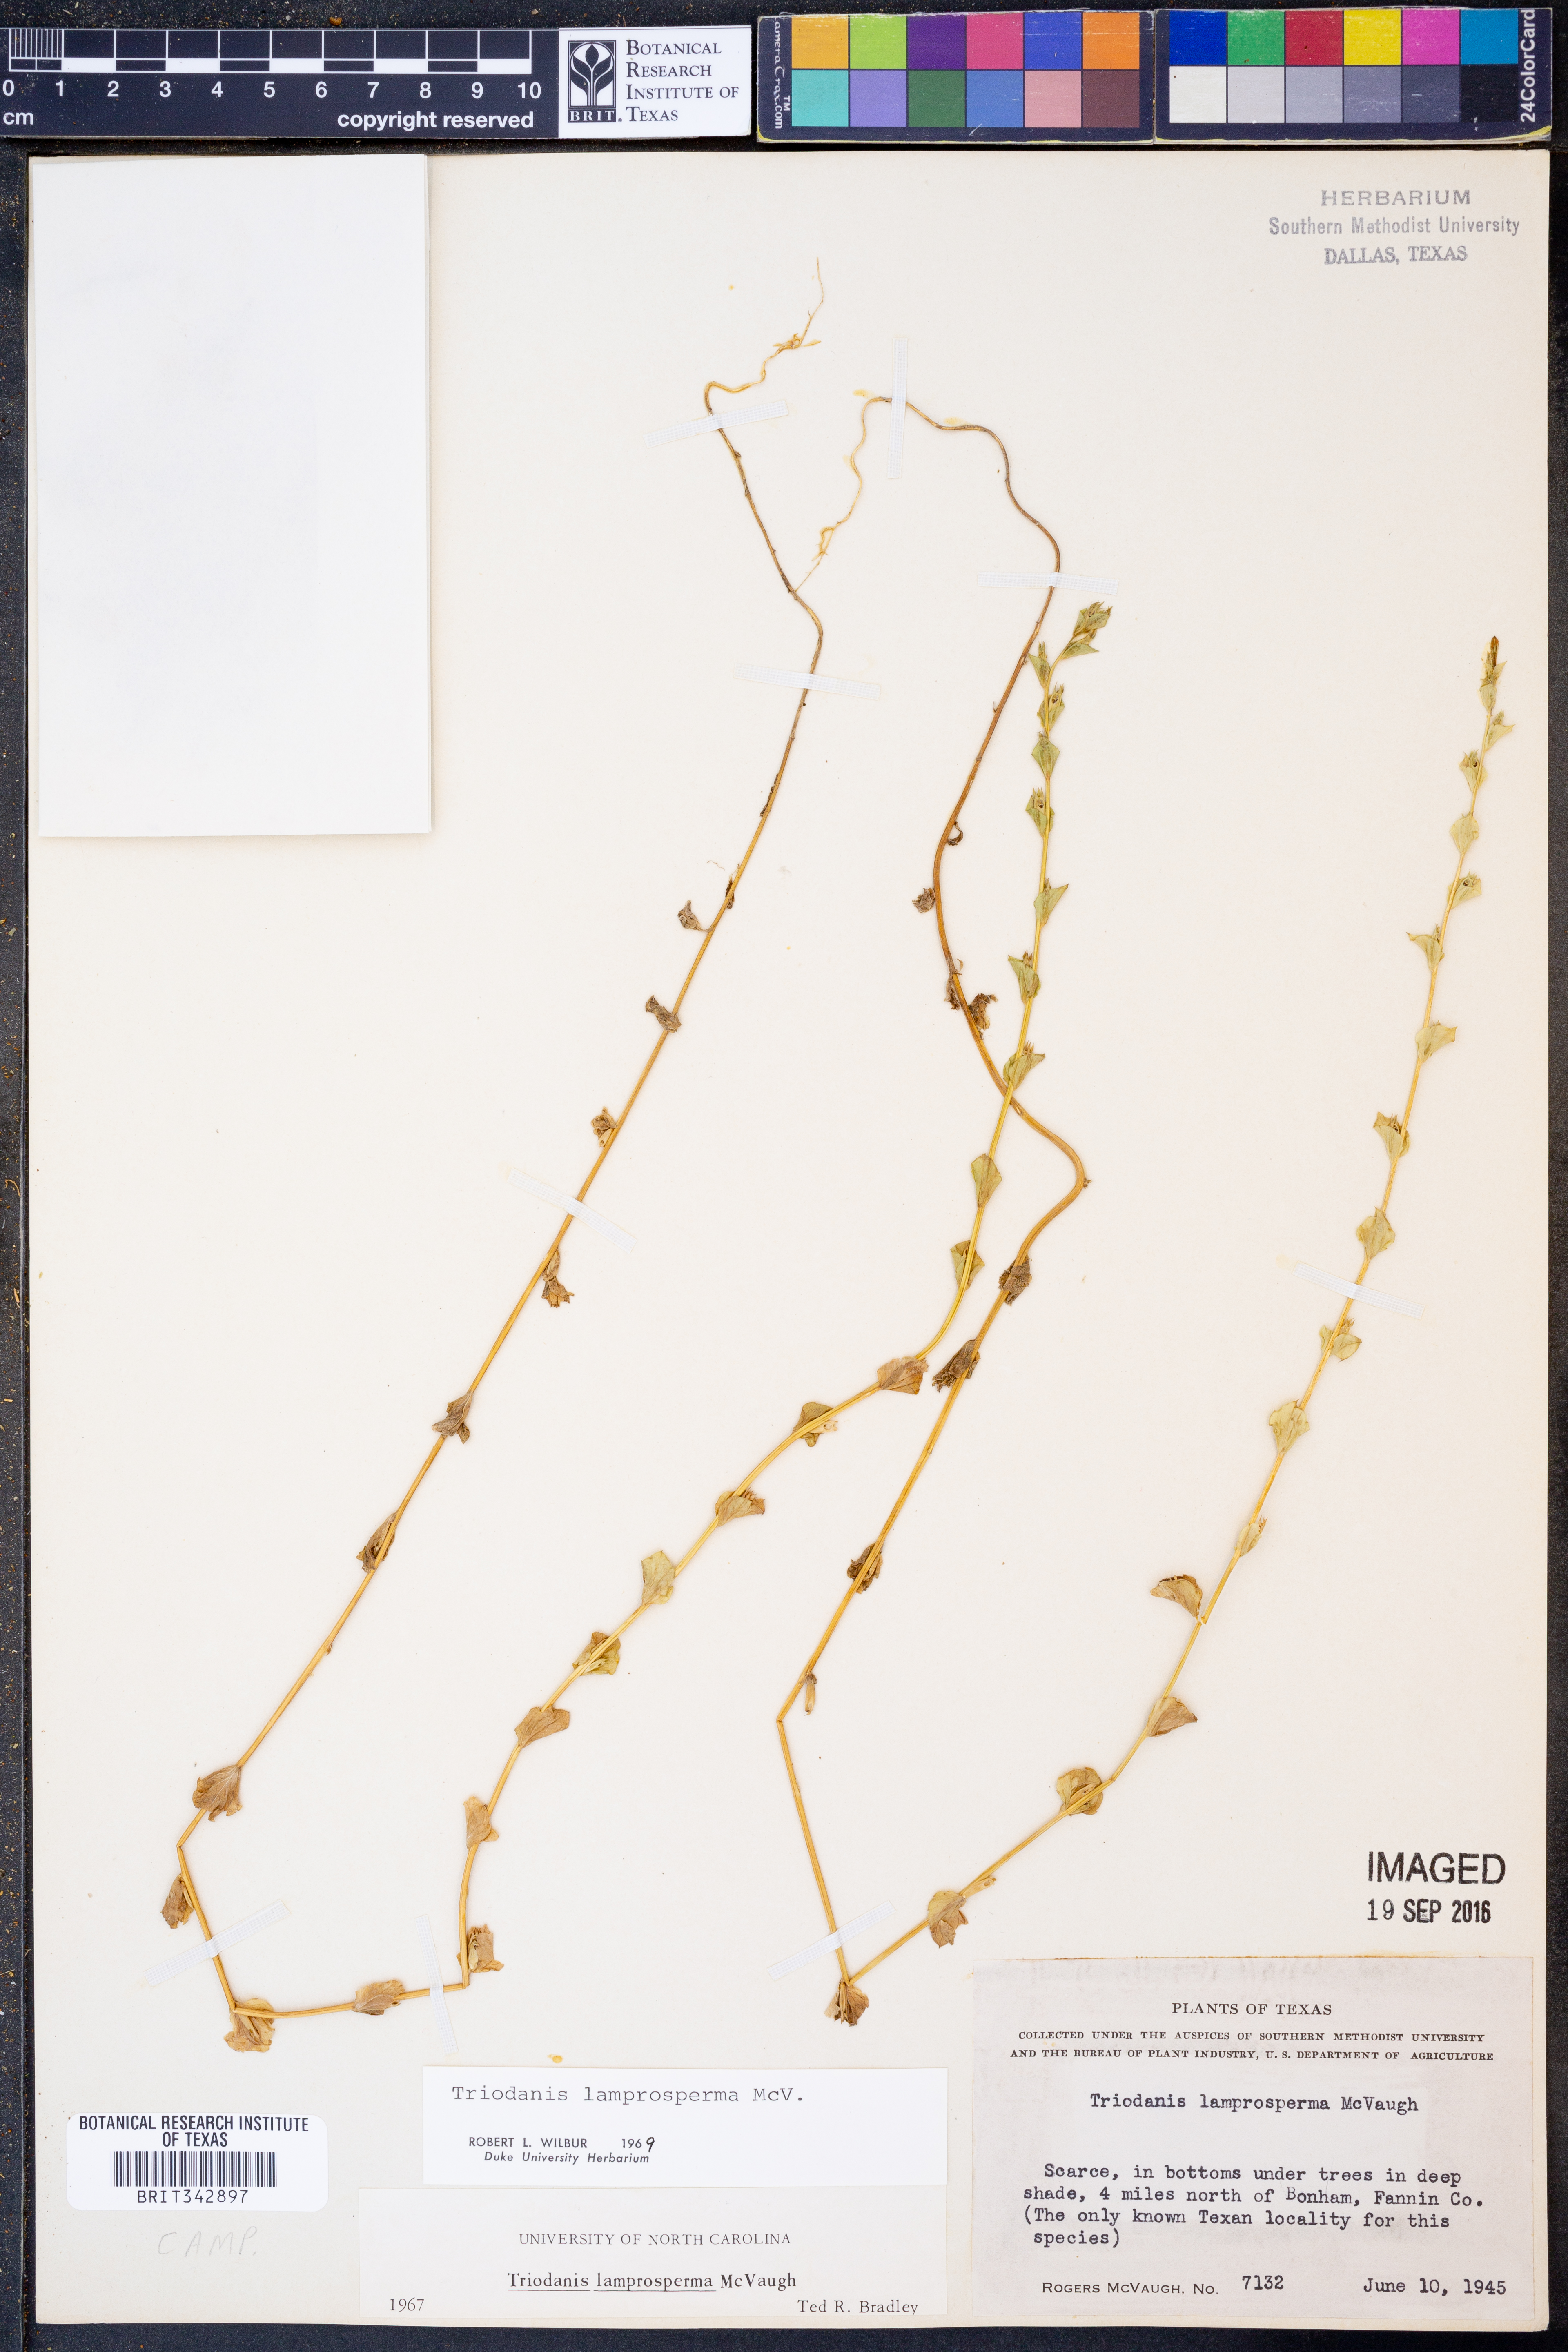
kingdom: Plantae
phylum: Tracheophyta
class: Magnoliopsida
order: Asterales
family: Campanulaceae
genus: Triodanis
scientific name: Triodanis lamprosperma
